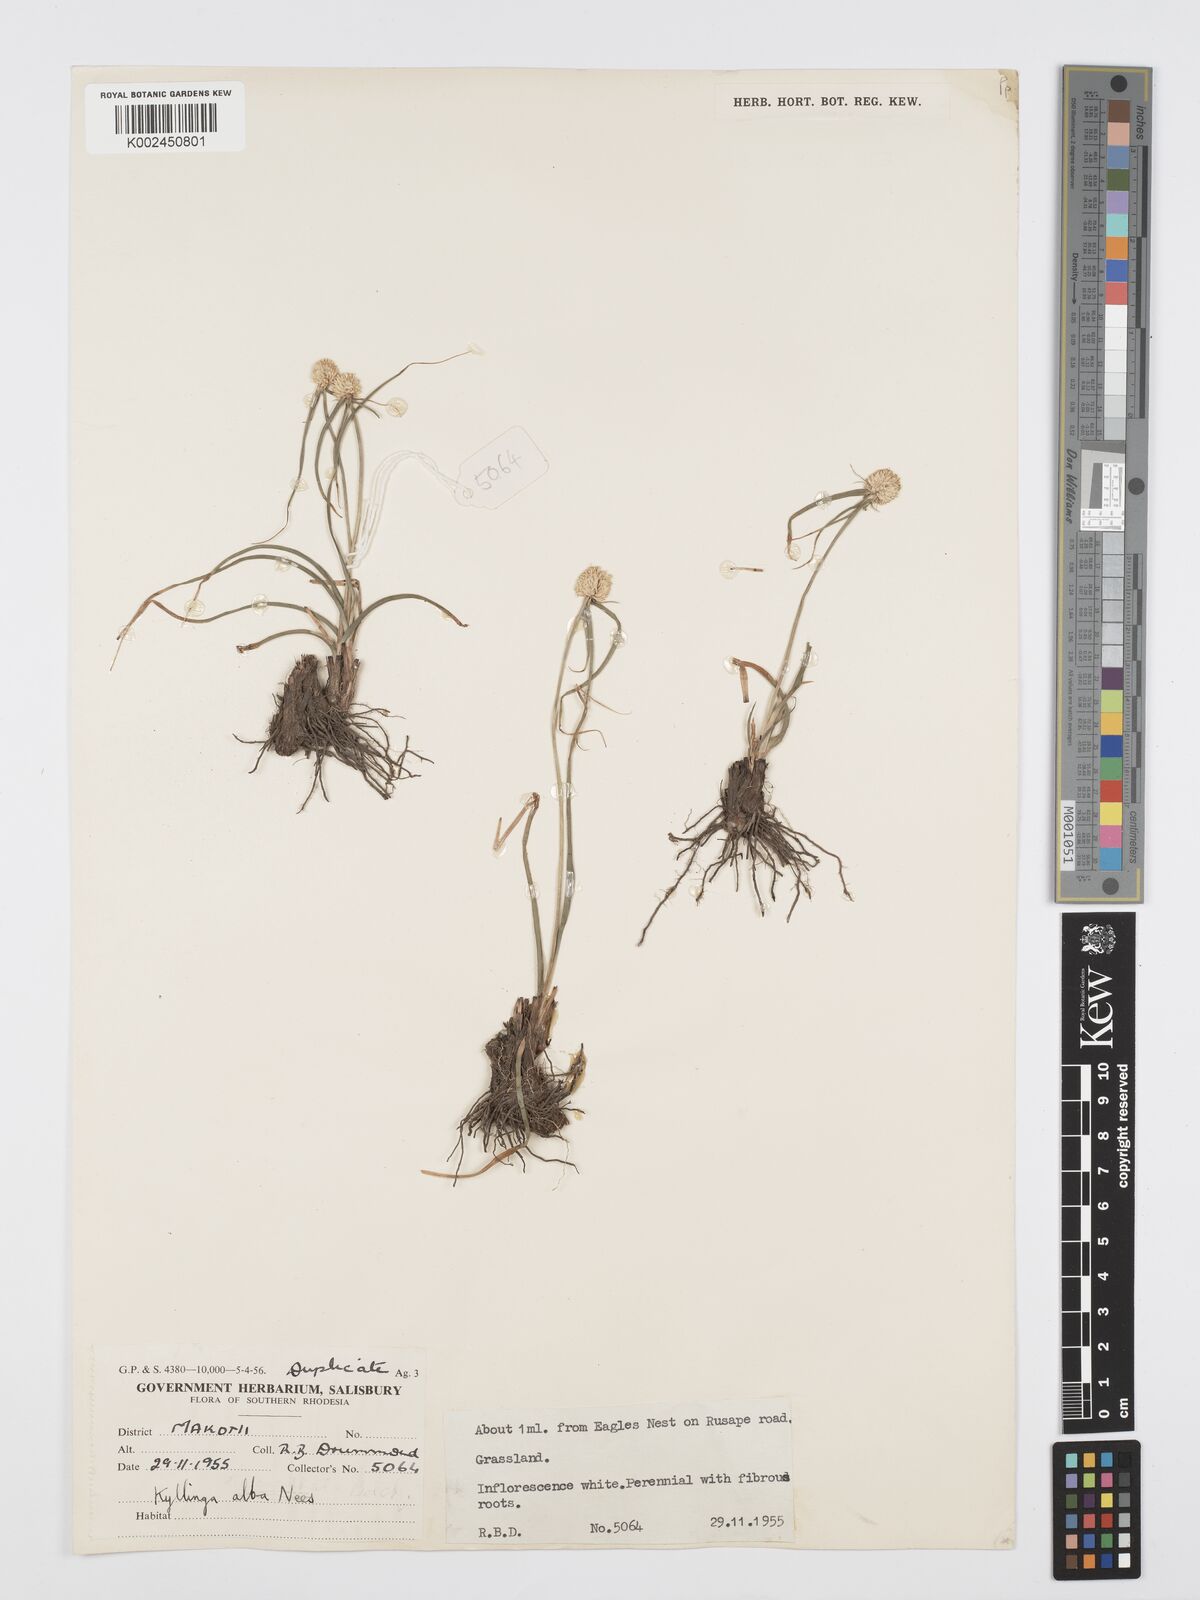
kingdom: Plantae
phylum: Tracheophyta
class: Liliopsida
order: Poales
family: Cyperaceae
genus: Cyperus
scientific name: Cyperus
